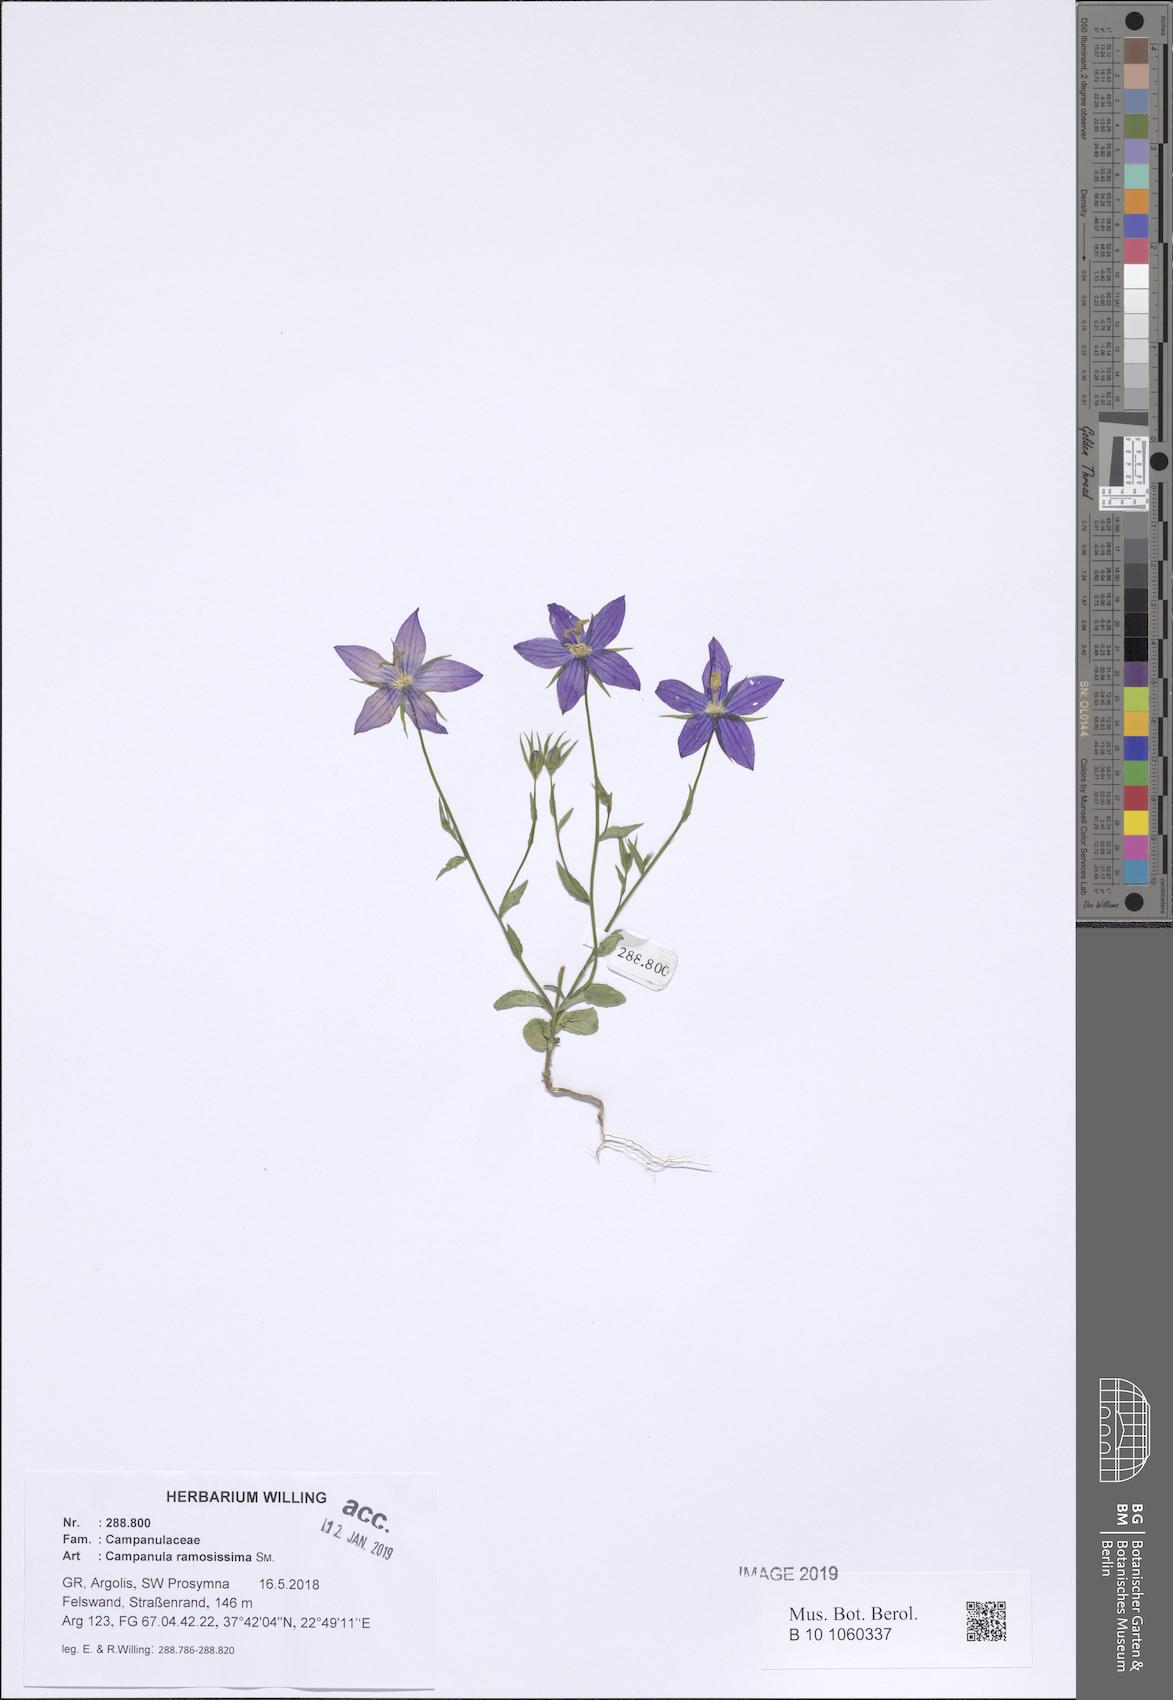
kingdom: Plantae
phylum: Tracheophyta
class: Magnoliopsida
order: Asterales
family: Campanulaceae
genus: Campanula
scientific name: Campanula ramosissima
